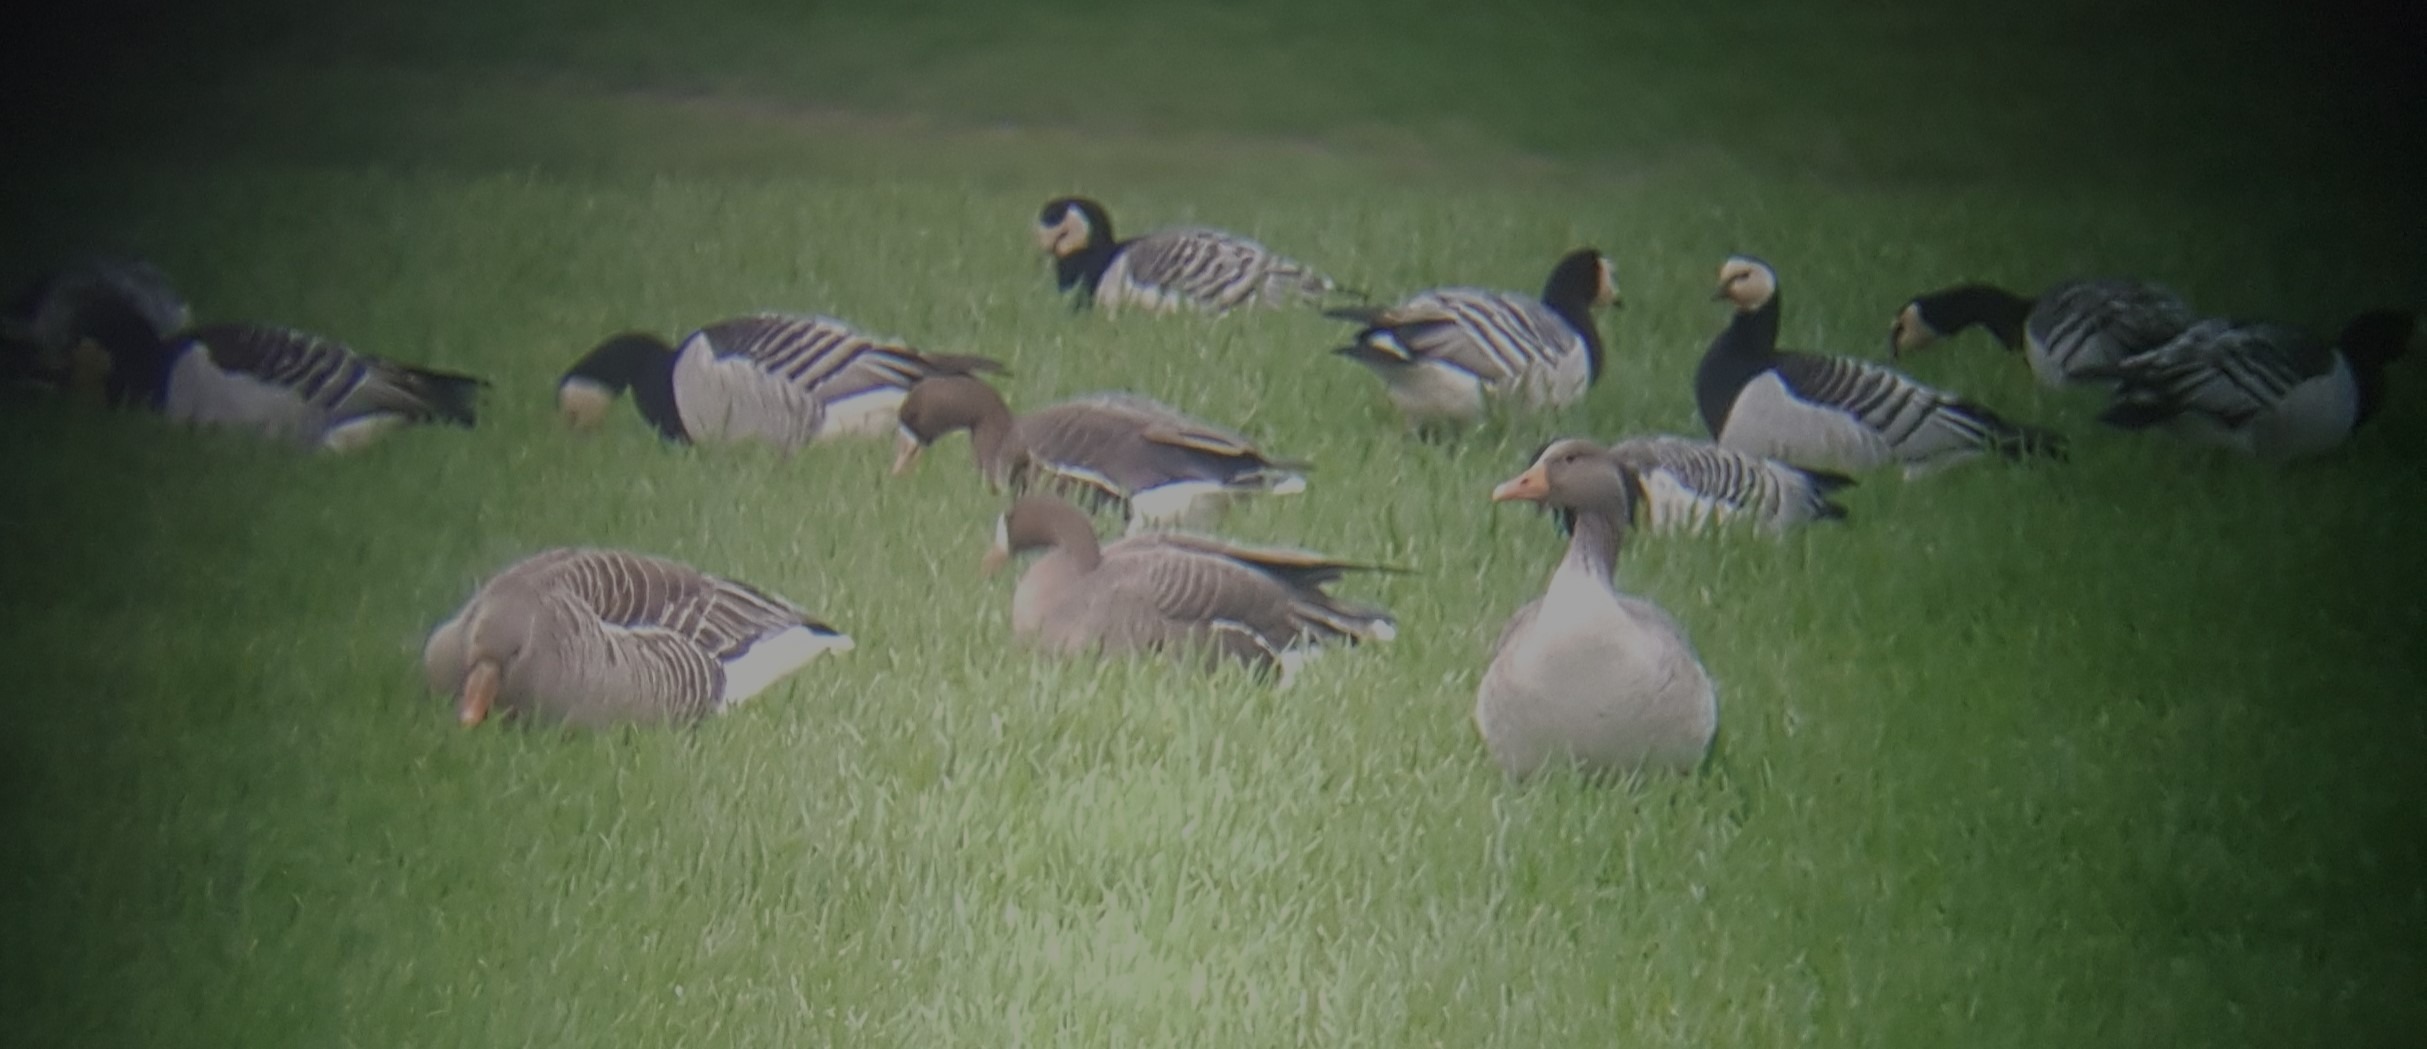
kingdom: Animalia
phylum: Chordata
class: Aves
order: Anseriformes
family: Anatidae
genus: Anser
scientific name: Anser albifrons
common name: Blisgås
